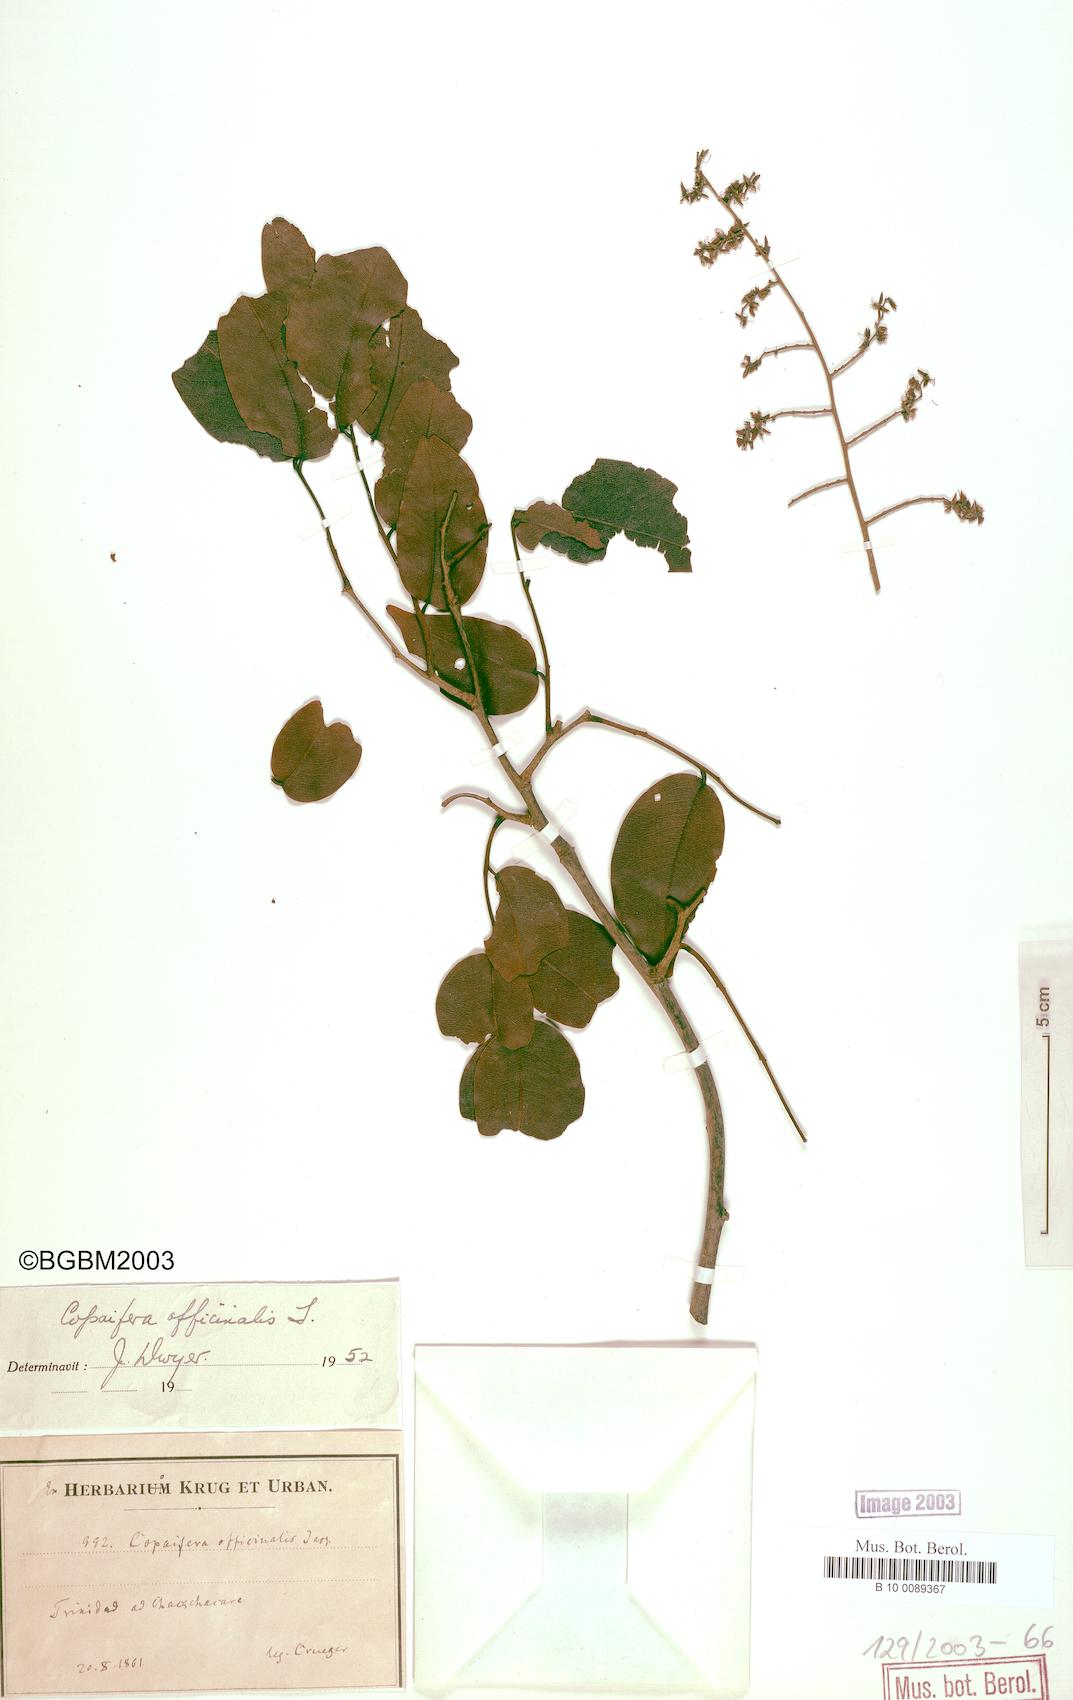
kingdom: Plantae
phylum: Tracheophyta
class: Magnoliopsida
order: Fabales
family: Fabaceae
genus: Copaifera
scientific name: Copaifera officinalis
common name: Copaiba
